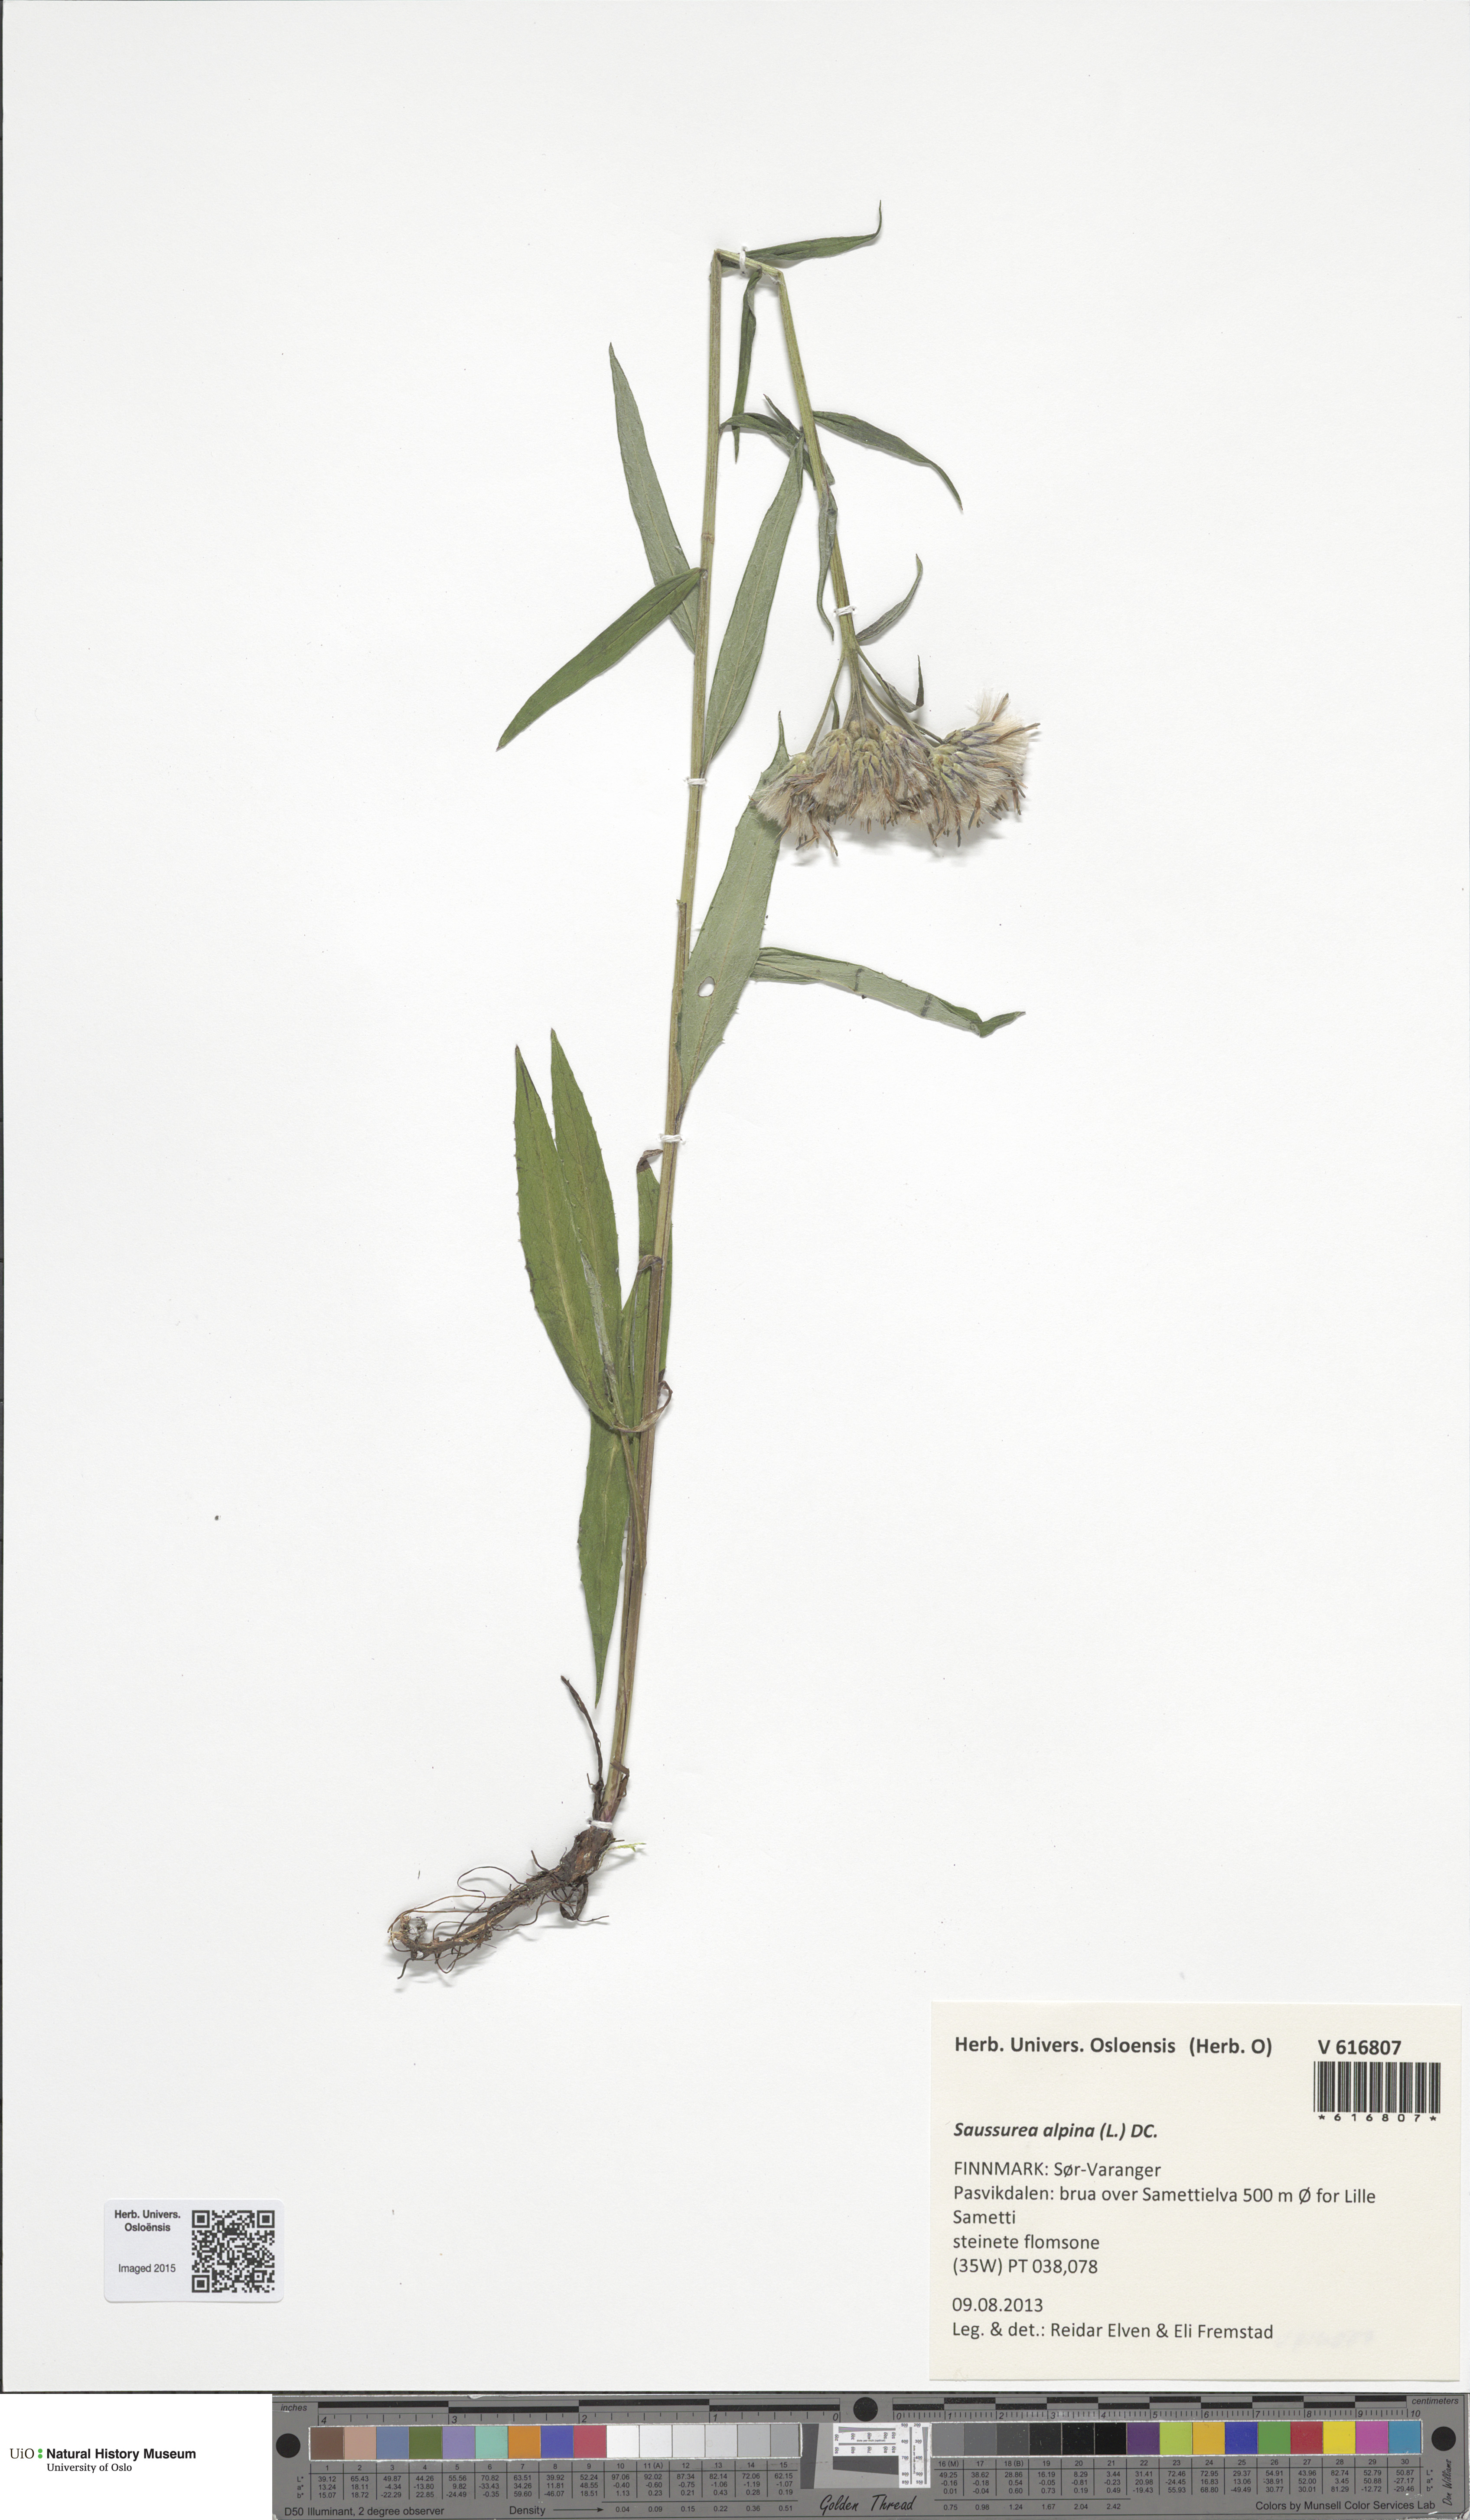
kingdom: Plantae
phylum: Tracheophyta
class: Magnoliopsida
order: Asterales
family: Asteraceae
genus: Saussurea
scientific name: Saussurea alpina
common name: Alpine saw-wort
